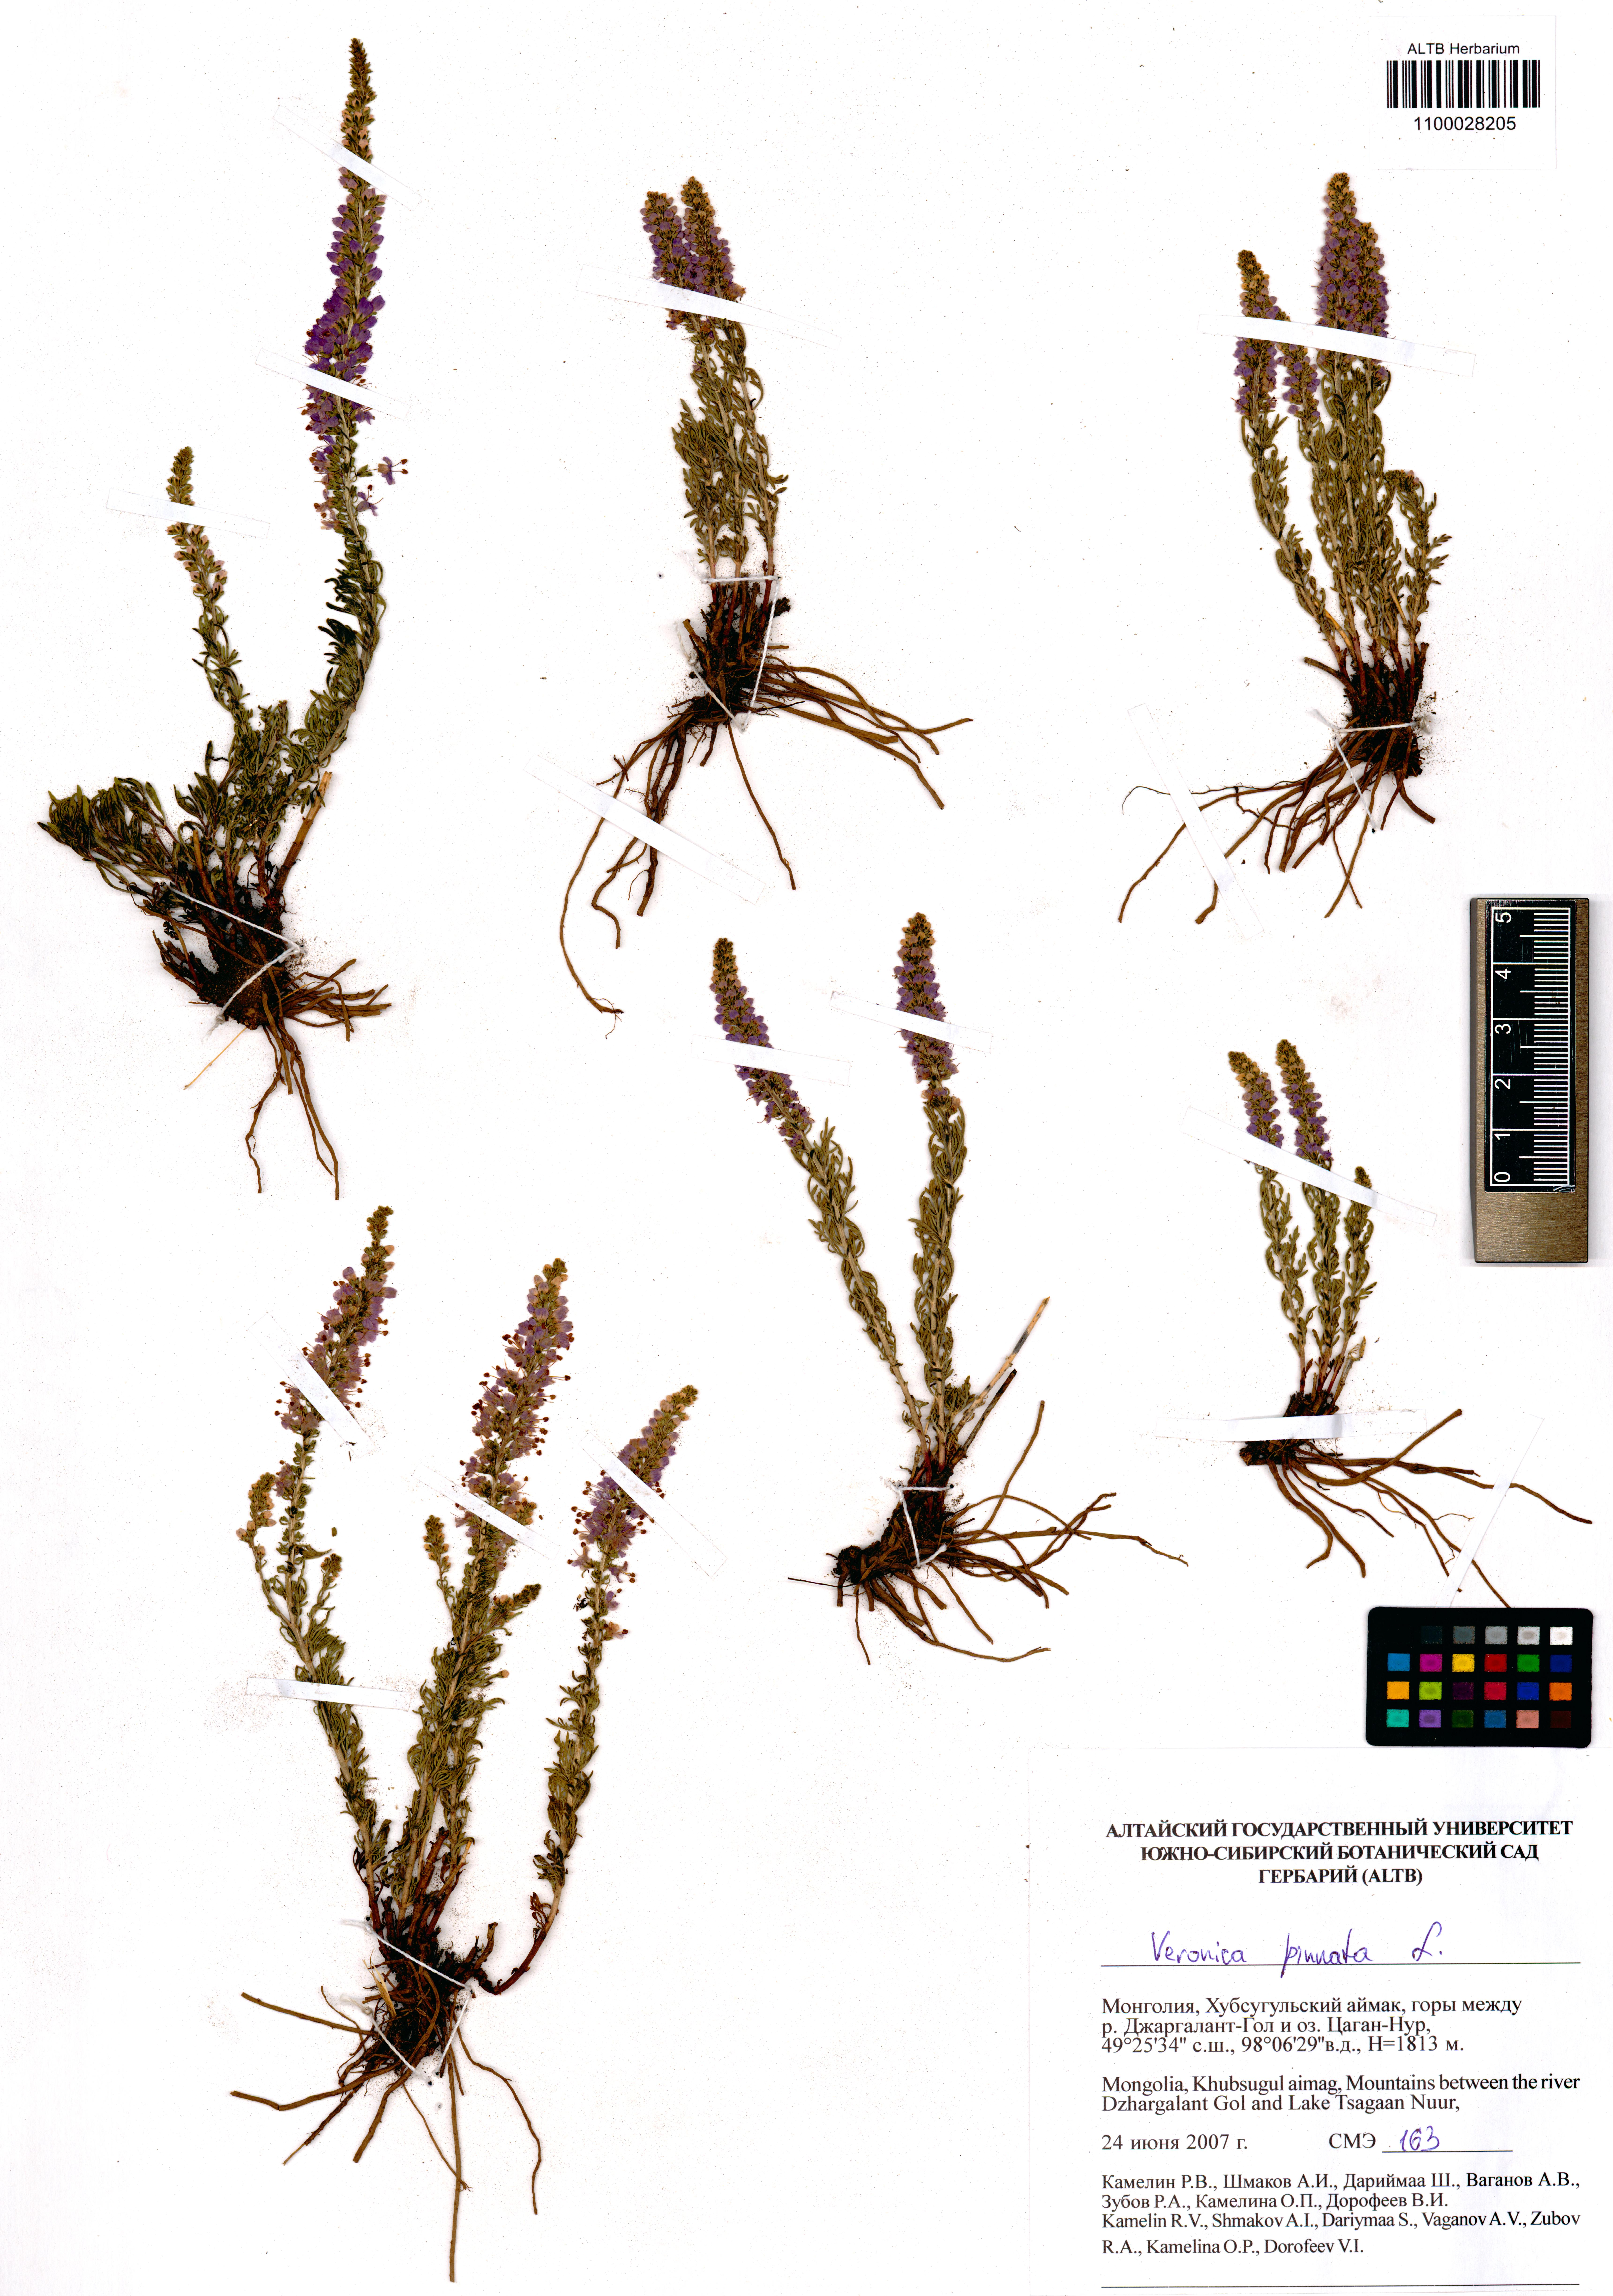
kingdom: Plantae
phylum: Tracheophyta
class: Magnoliopsida
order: Lamiales
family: Plantaginaceae
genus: Veronica
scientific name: Veronica pinnata
